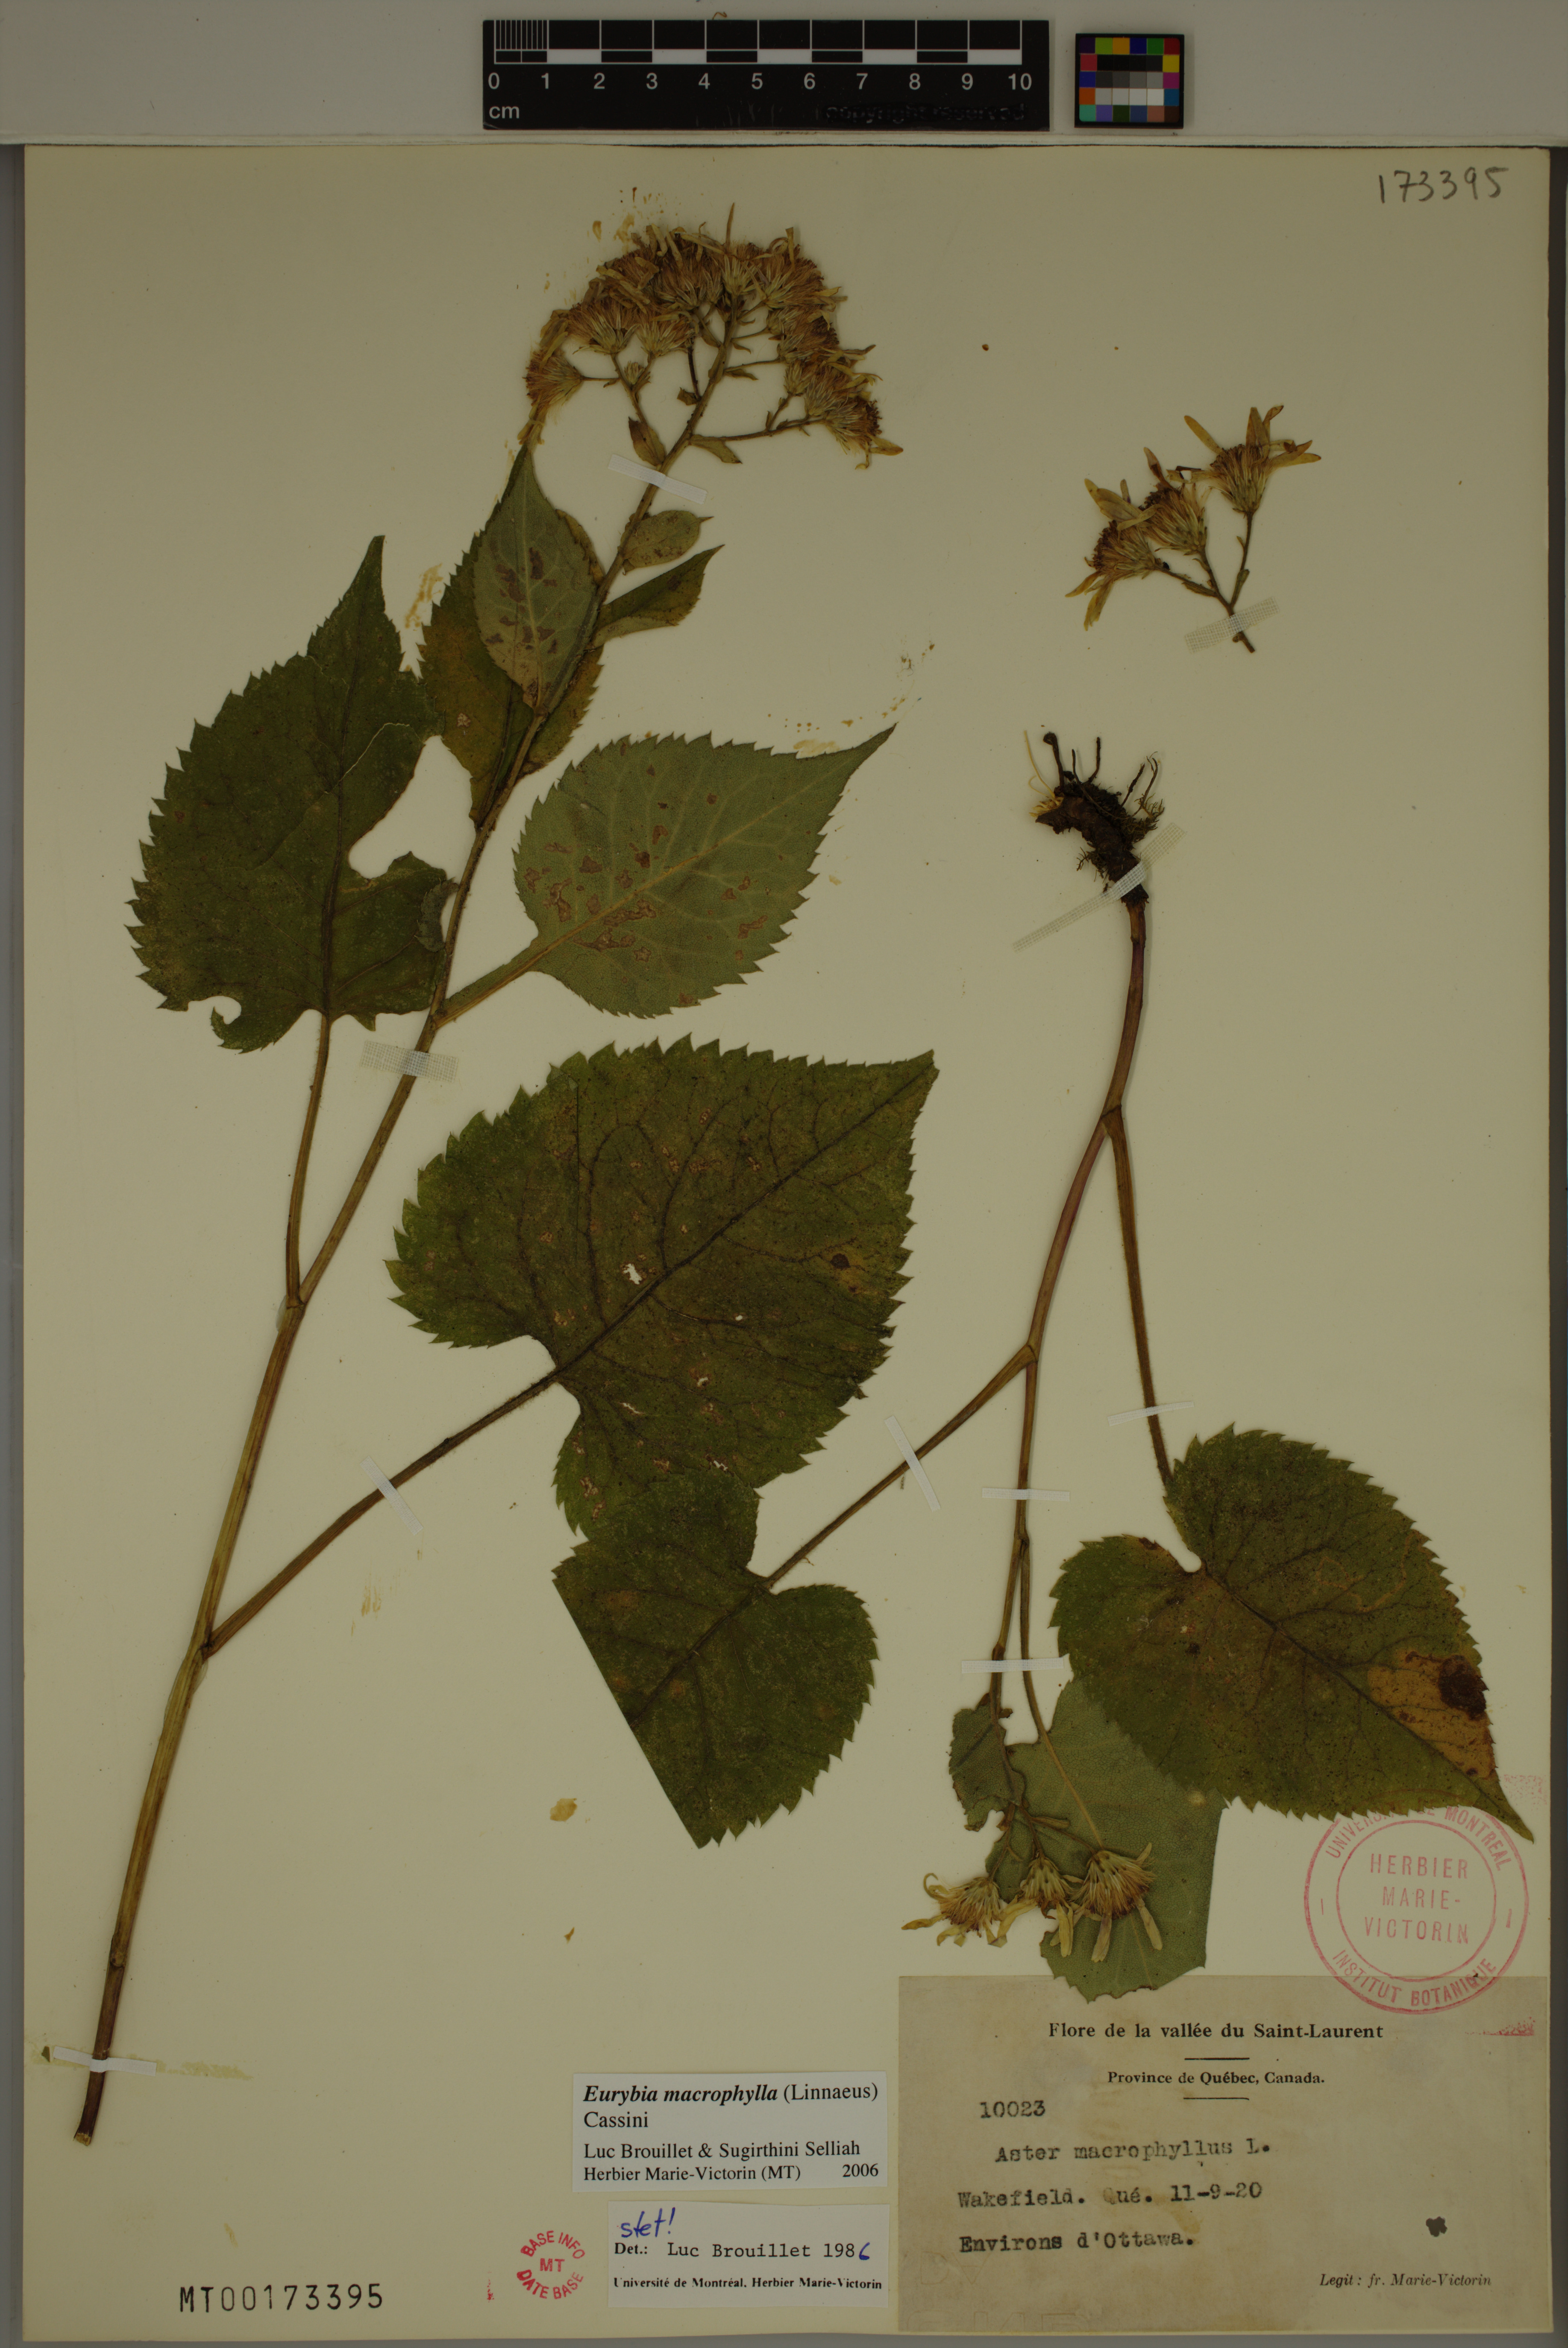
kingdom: Plantae
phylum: Tracheophyta
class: Magnoliopsida
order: Asterales
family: Asteraceae
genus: Eurybia
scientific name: Eurybia macrophylla
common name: Big-leaved aster
